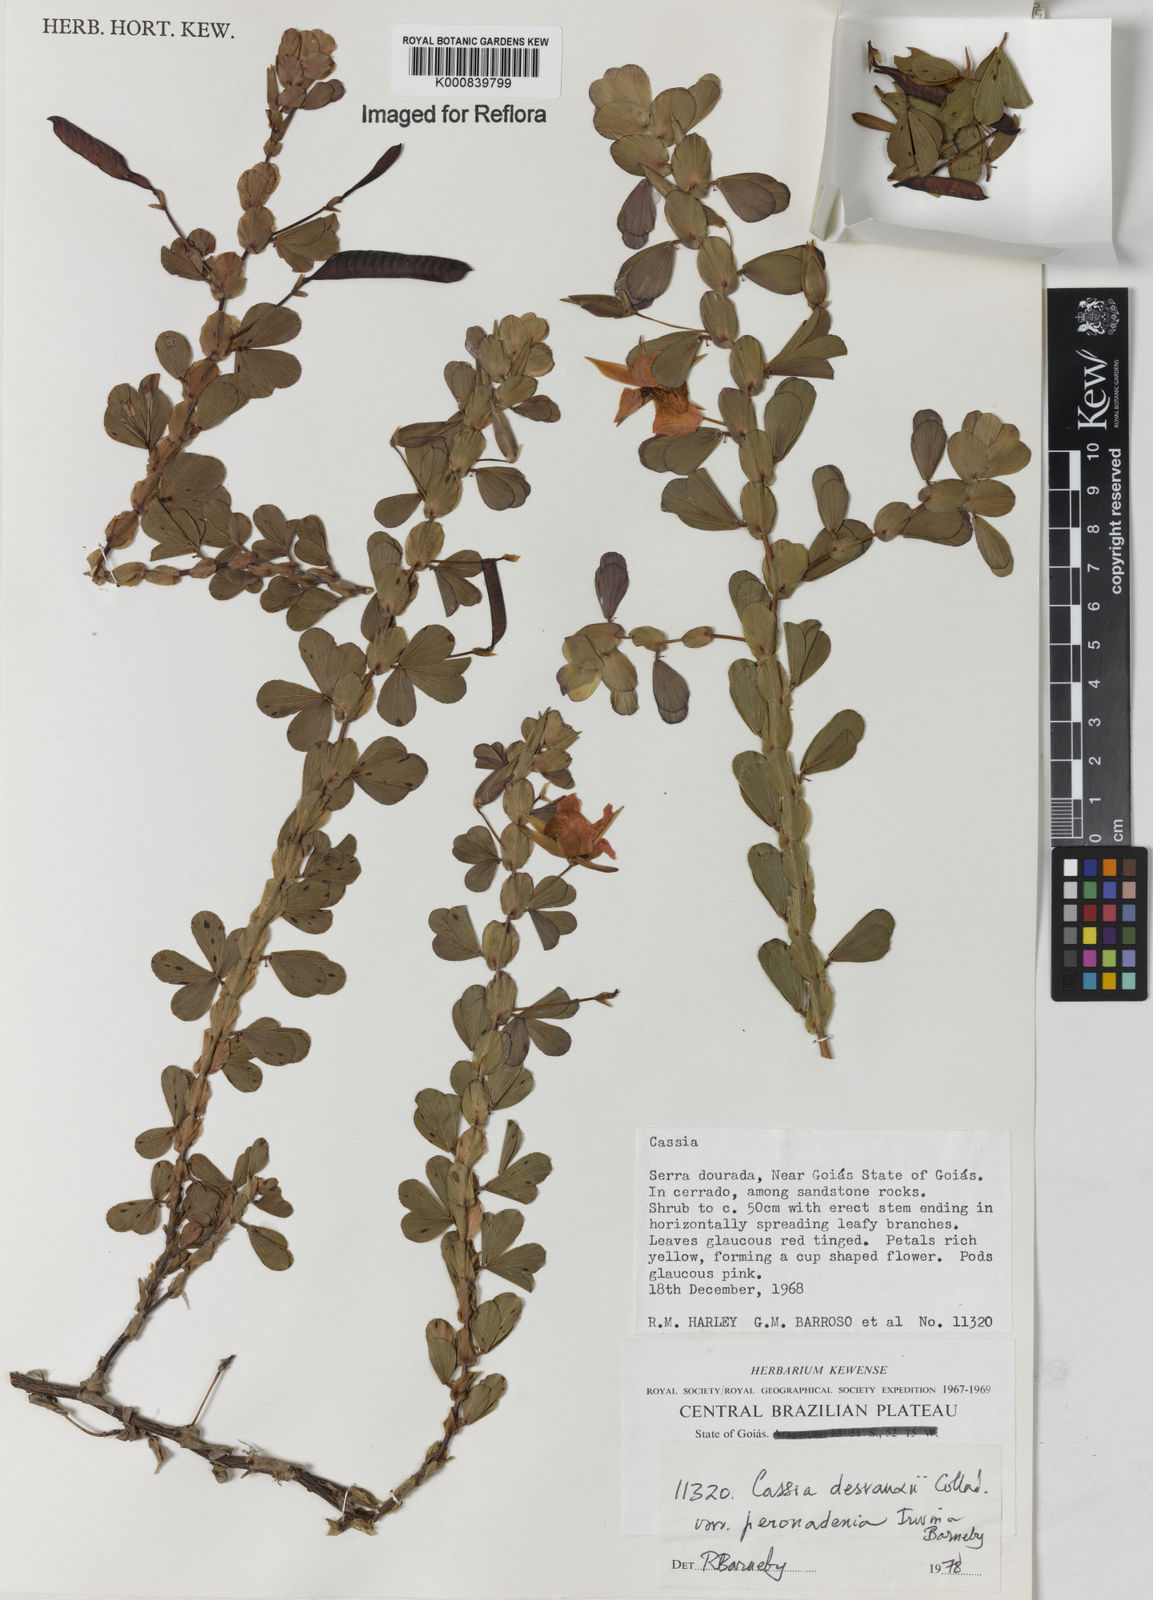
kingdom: Plantae
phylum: Tracheophyta
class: Magnoliopsida
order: Fabales
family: Fabaceae
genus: Chamaecrista
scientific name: Chamaecrista desvauxii
